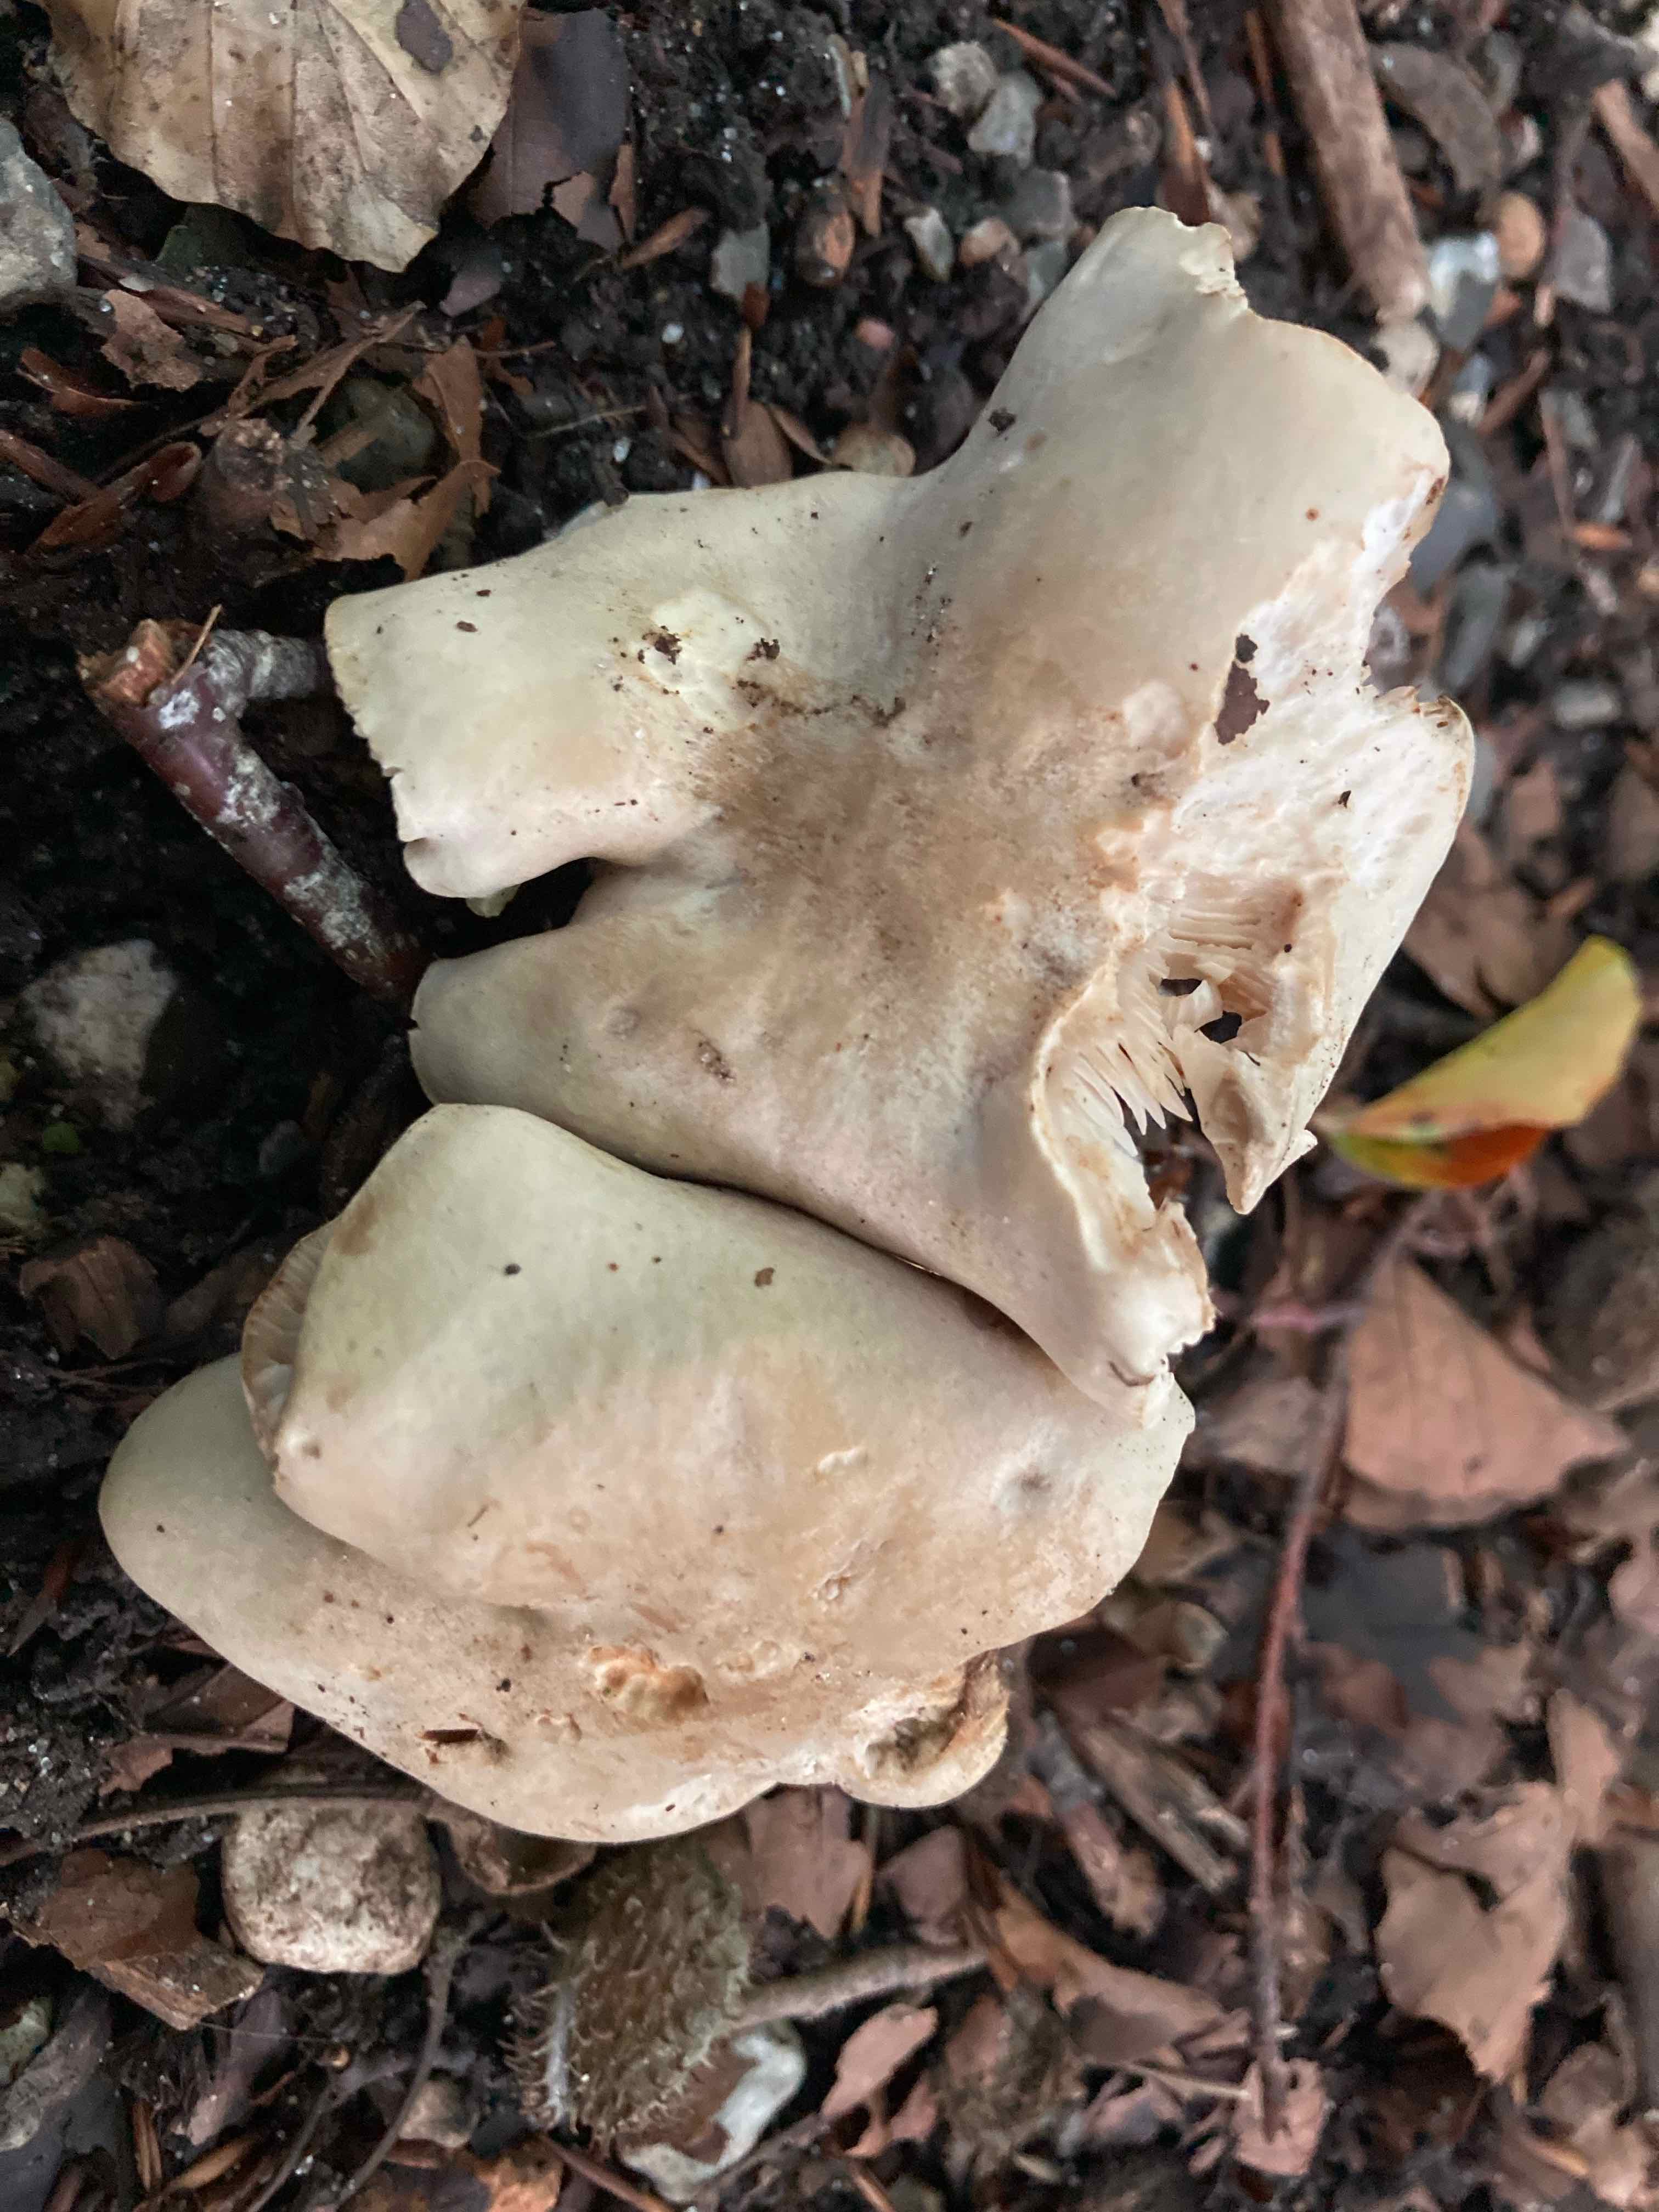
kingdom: Fungi
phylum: Basidiomycota
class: Agaricomycetes
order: Agaricales
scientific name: Agaricales
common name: champignonordenen
